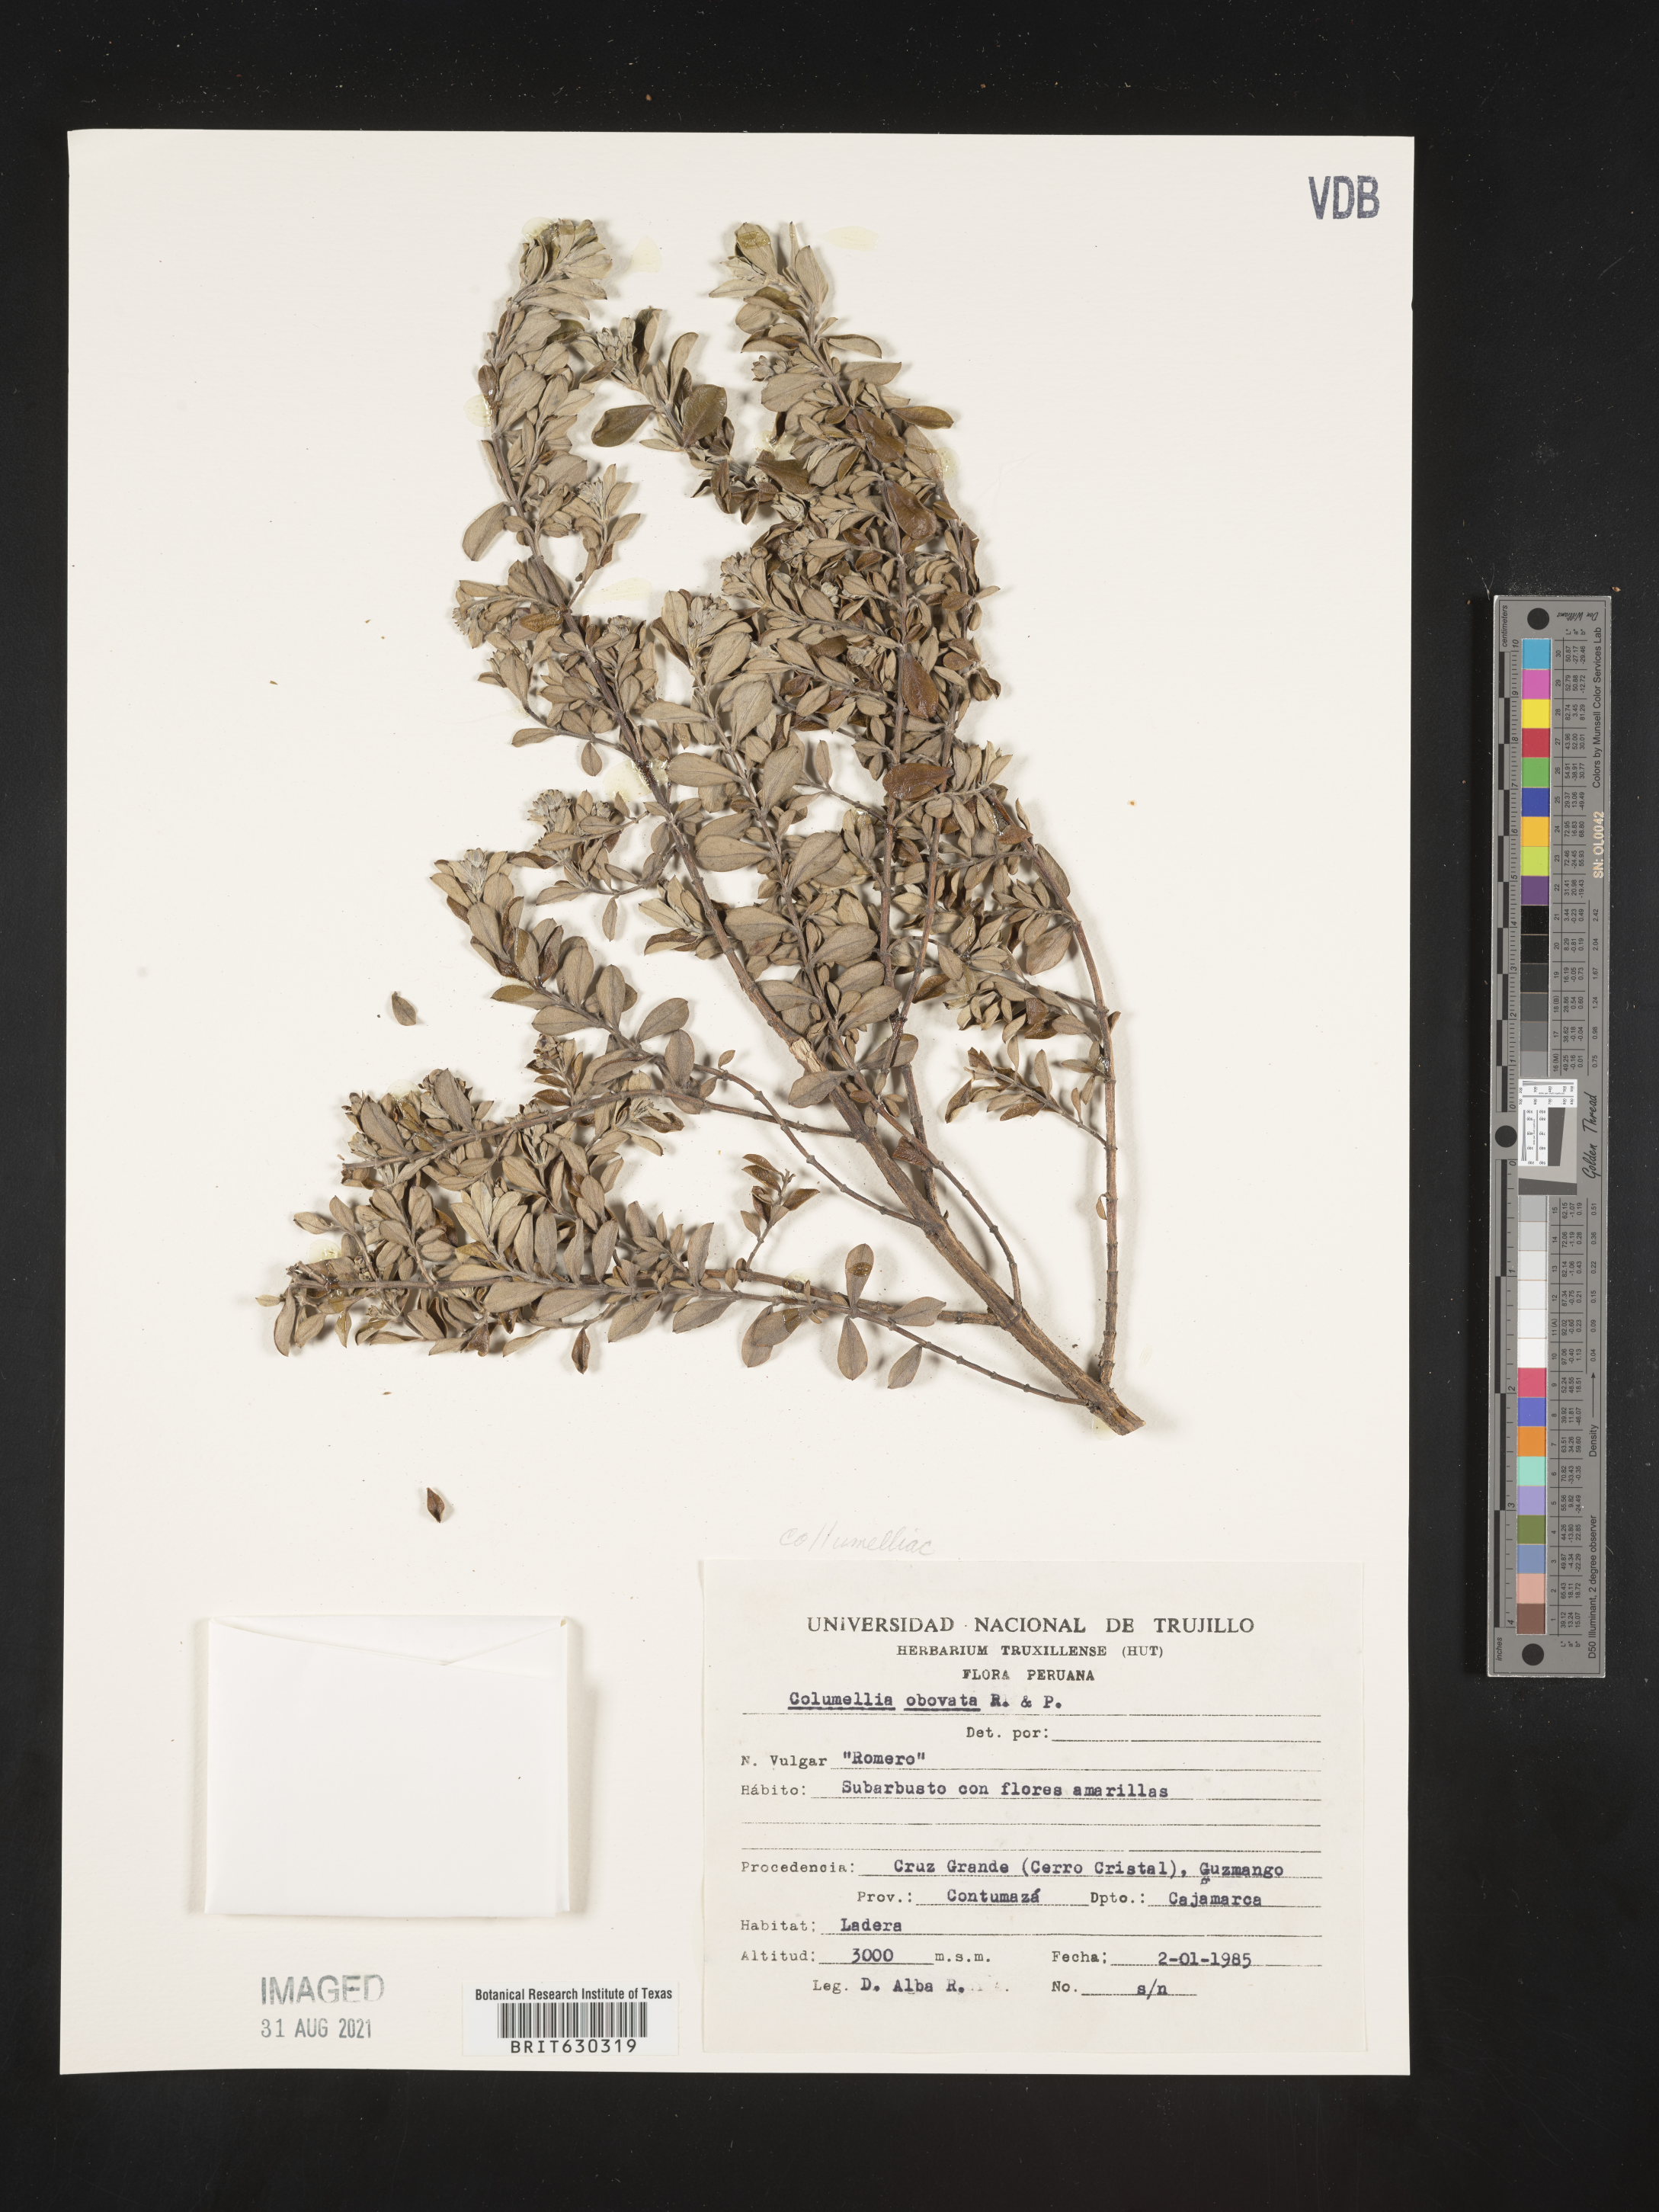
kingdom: Plantae
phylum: Tracheophyta
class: Magnoliopsida
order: Bruniales
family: Columelliaceae
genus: Columellia
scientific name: Columellia obovata
